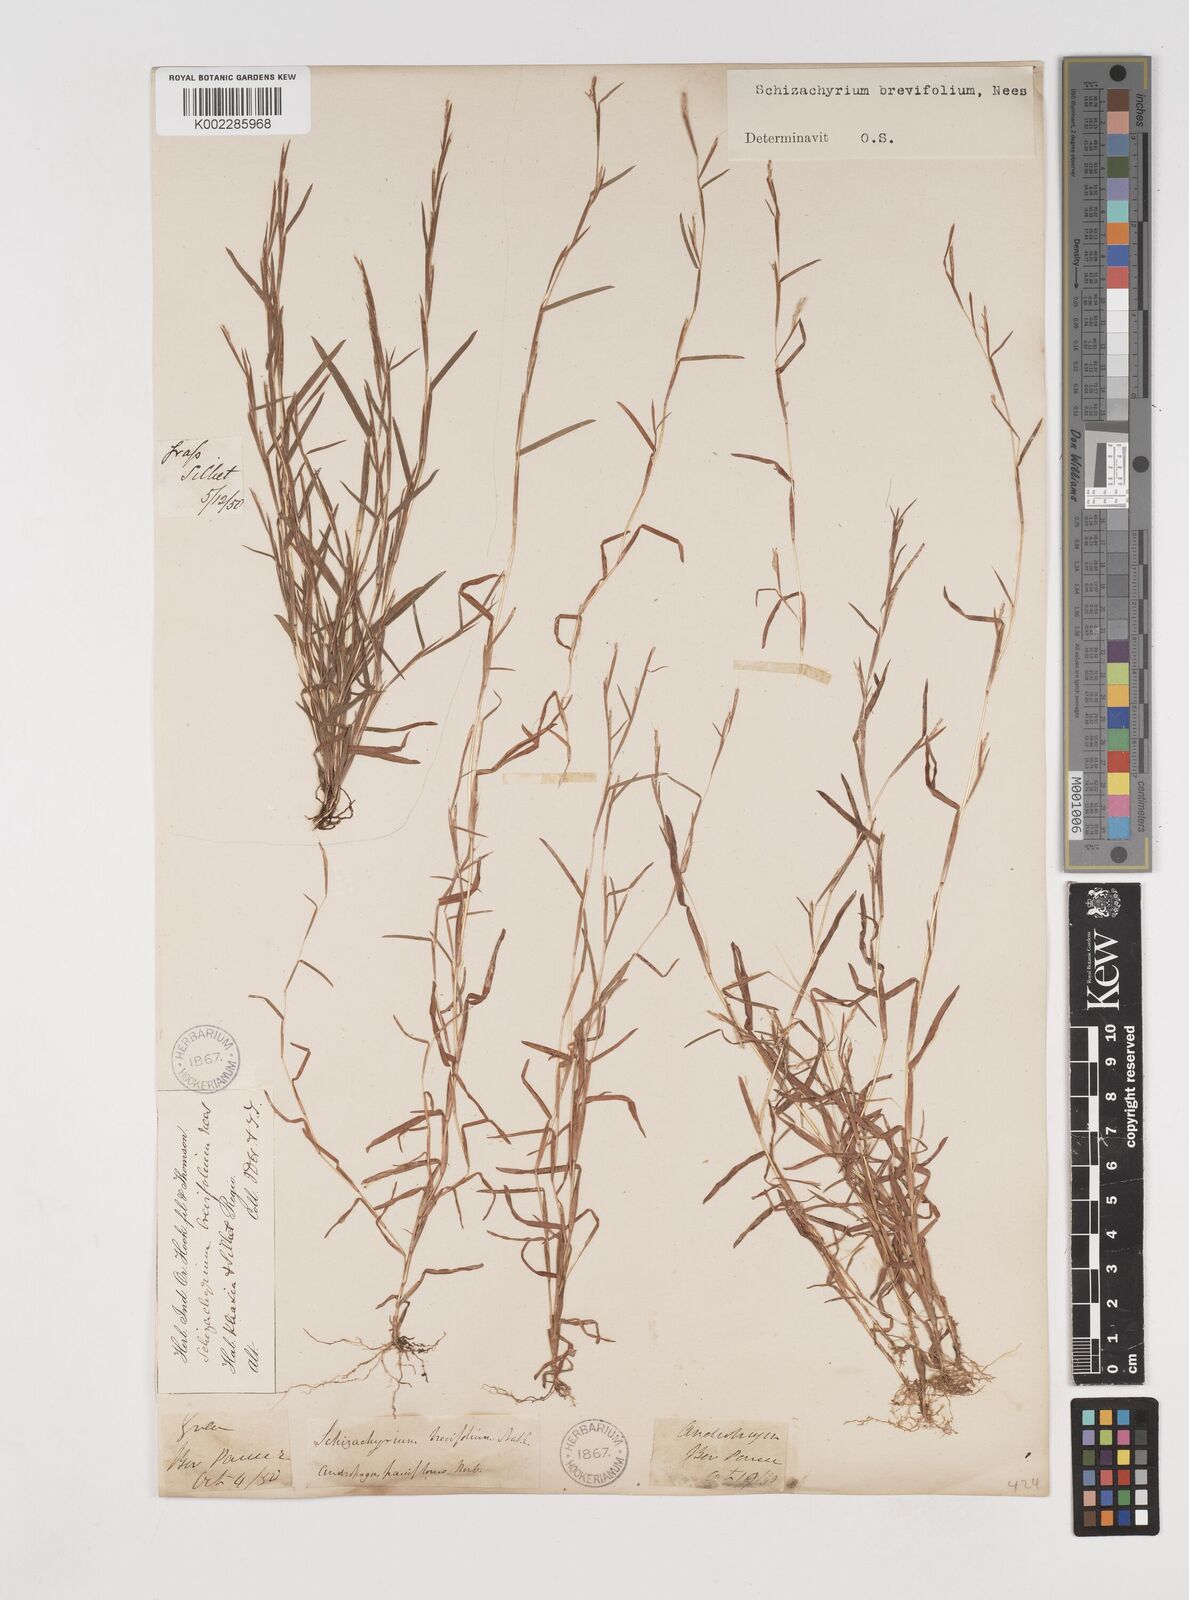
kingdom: Plantae
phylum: Tracheophyta
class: Liliopsida
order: Poales
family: Poaceae
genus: Schizachyrium
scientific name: Schizachyrium brevifolium
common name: Serillo dulce
